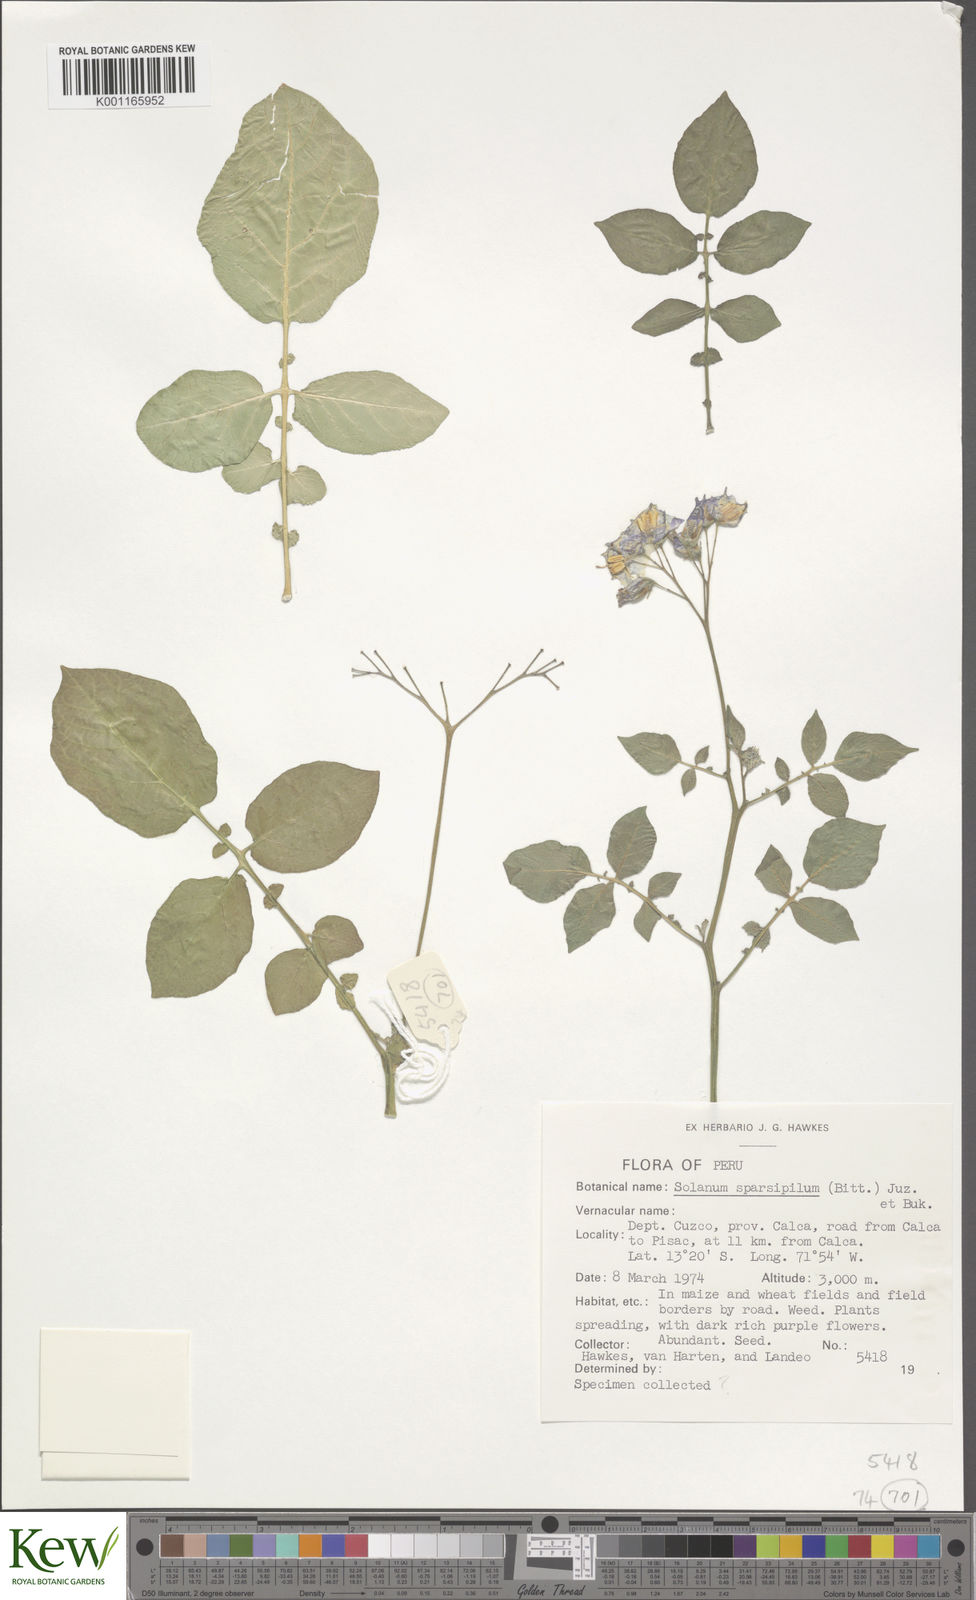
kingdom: Plantae
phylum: Tracheophyta
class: Magnoliopsida
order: Solanales
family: Solanaceae
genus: Solanum
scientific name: Solanum brevicaule
